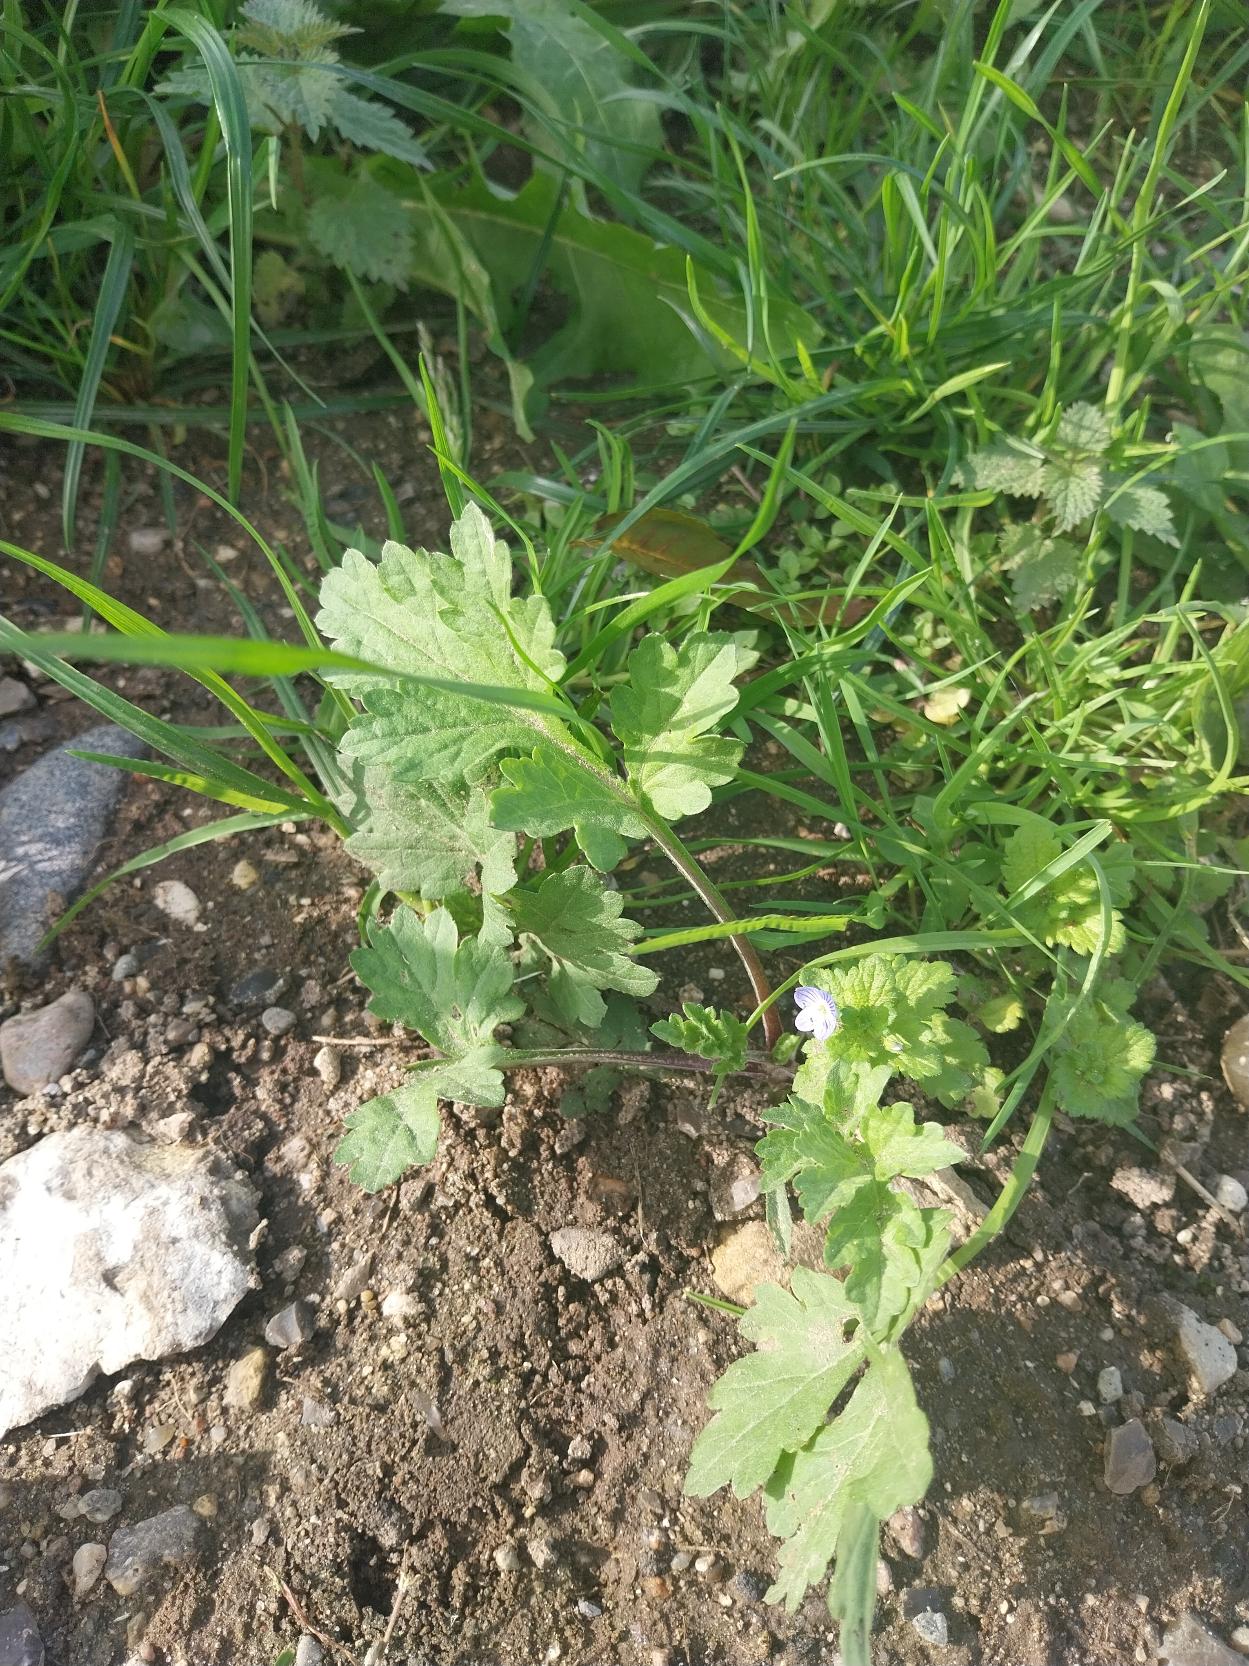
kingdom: Plantae
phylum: Tracheophyta
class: Magnoliopsida
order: Ranunculales
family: Papaveraceae
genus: Chelidonium
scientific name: Chelidonium majus
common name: Svaleurt
